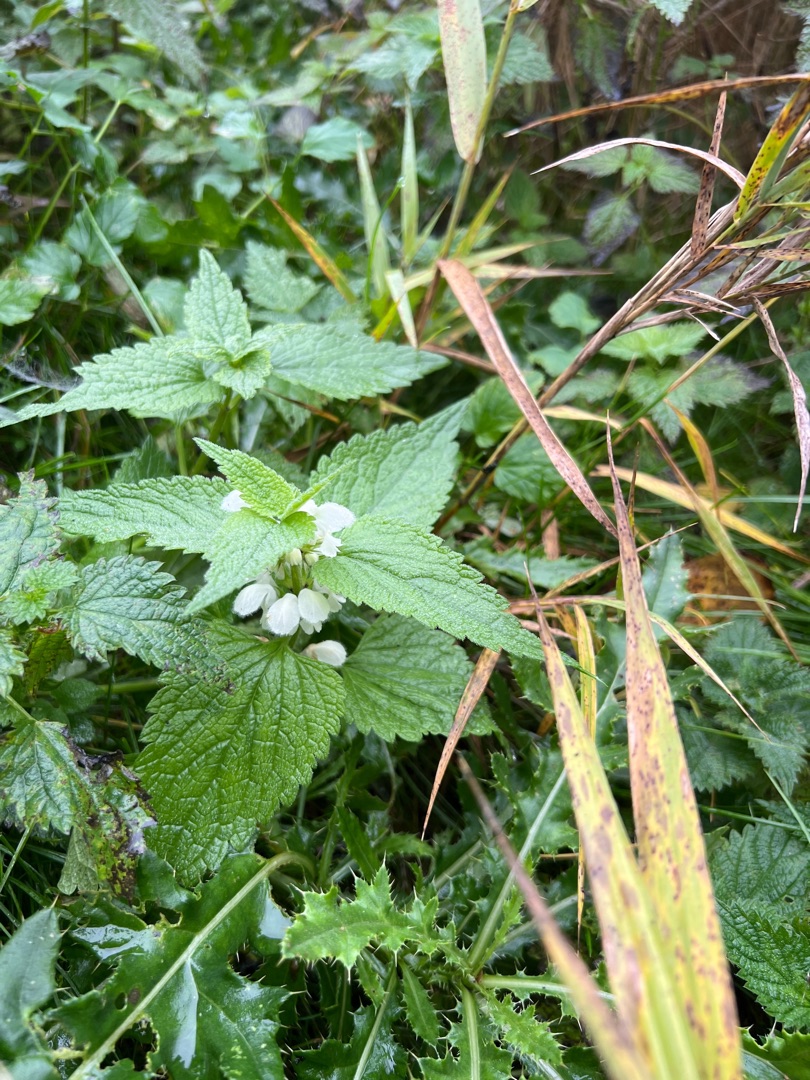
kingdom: Plantae
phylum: Tracheophyta
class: Magnoliopsida
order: Lamiales
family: Lamiaceae
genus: Lamium
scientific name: Lamium album
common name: Døvnælde
